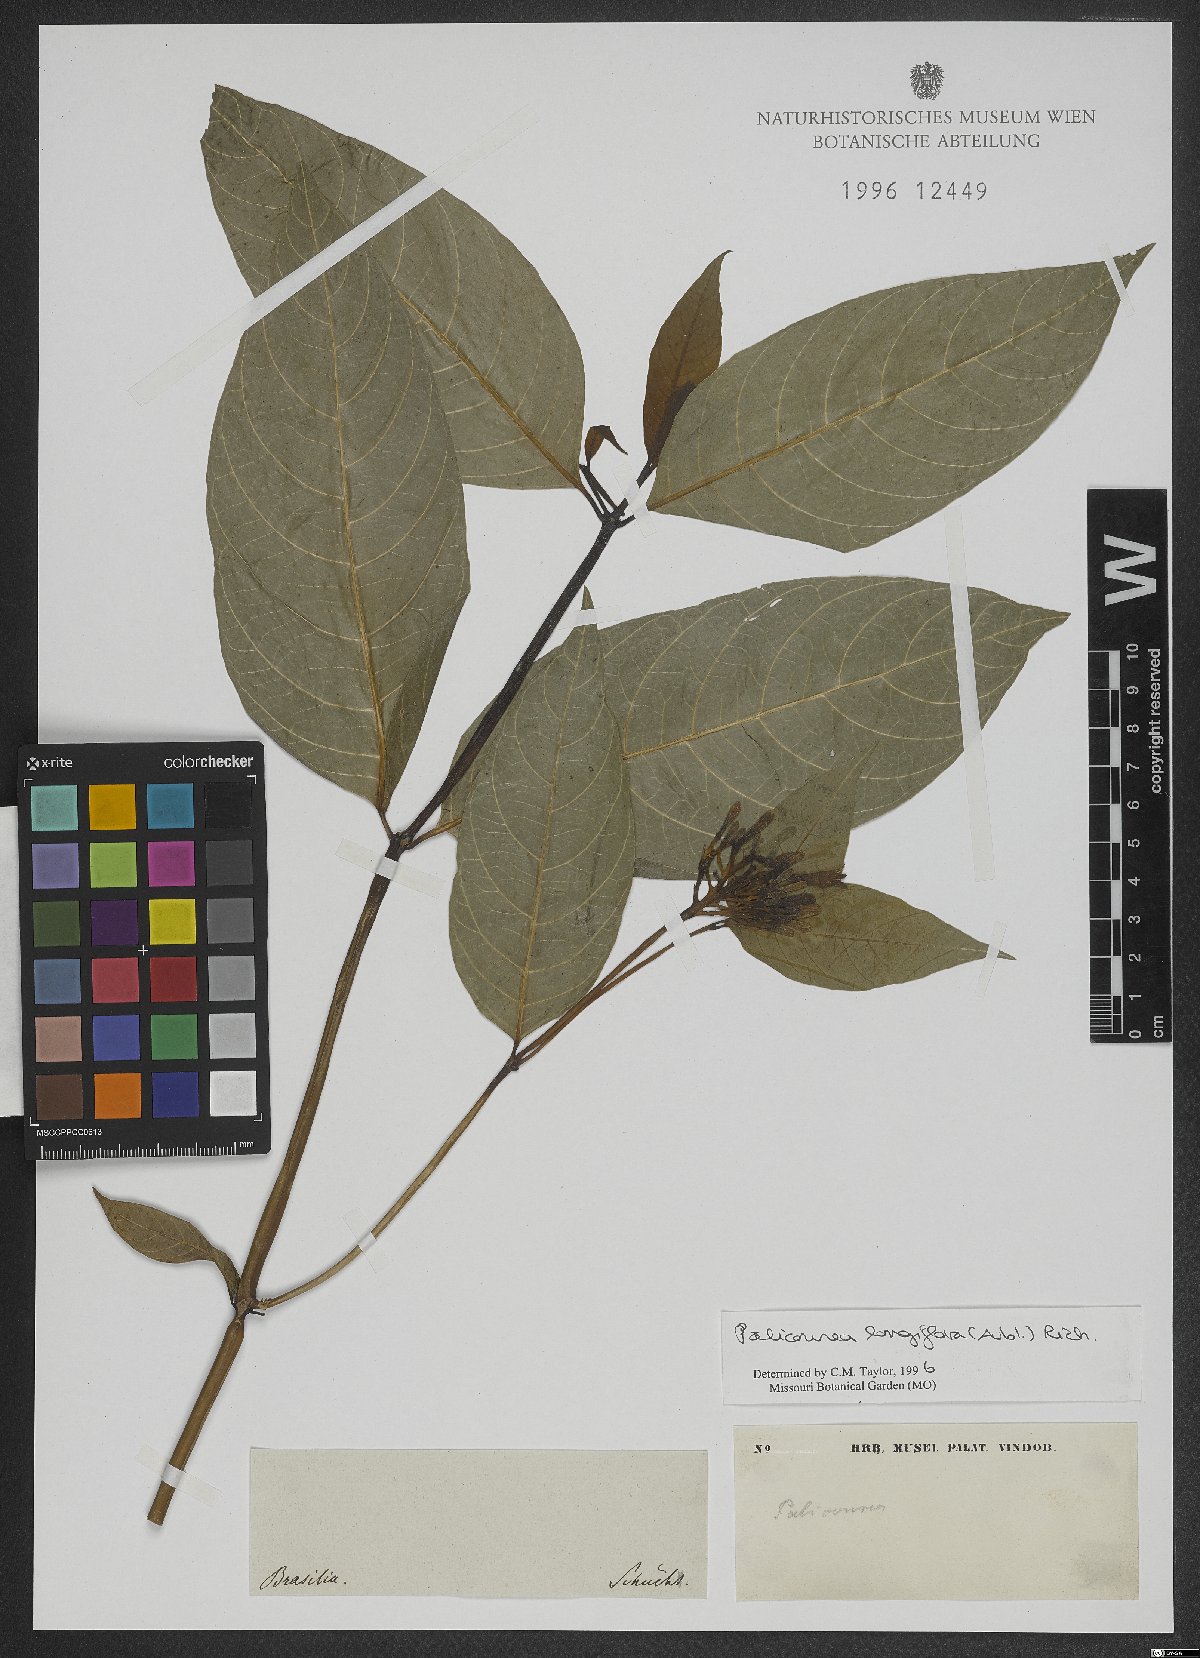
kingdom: Plantae
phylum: Tracheophyta
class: Magnoliopsida
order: Gentianales
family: Rubiaceae
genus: Palicourea
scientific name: Palicourea longiflora
